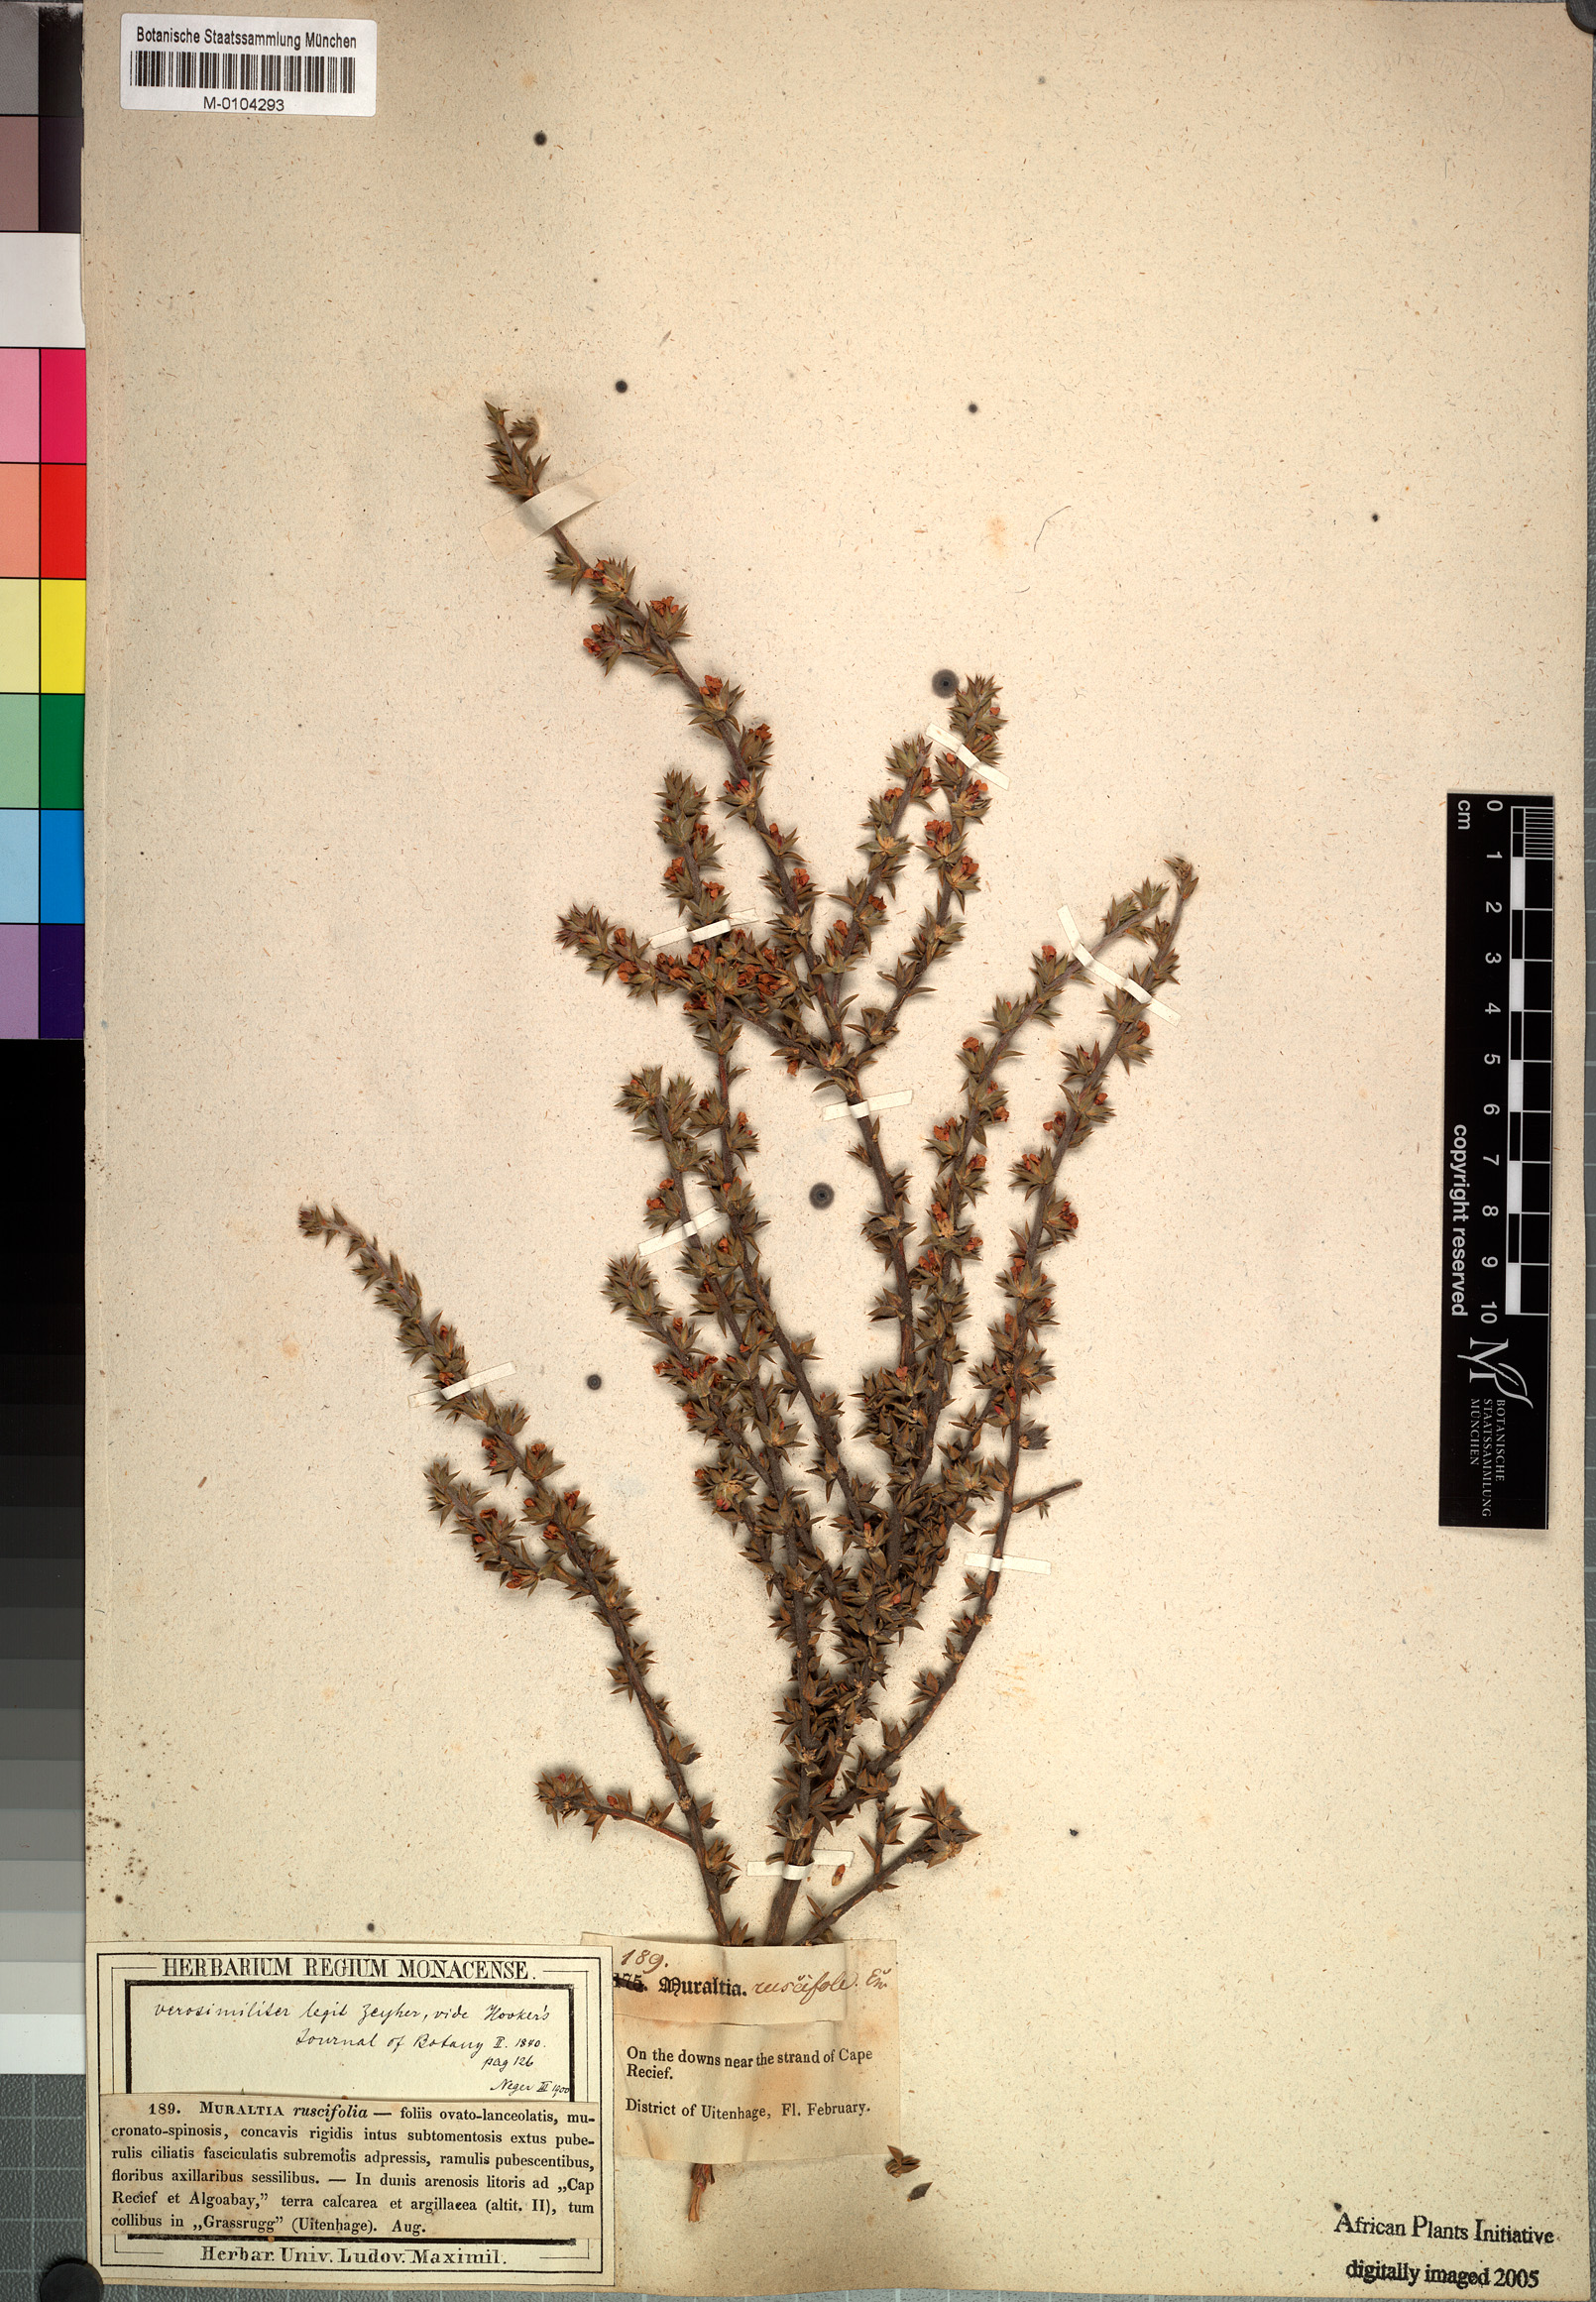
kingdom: Plantae
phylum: Tracheophyta
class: Magnoliopsida
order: Fabales
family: Polygalaceae
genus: Muraltia
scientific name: Muraltia squarrosa
